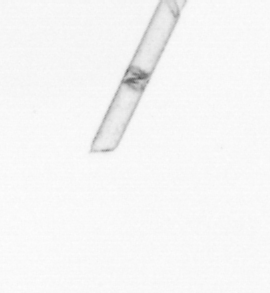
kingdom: Chromista
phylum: Ochrophyta
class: Bacillariophyceae
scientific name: Bacillariophyceae
